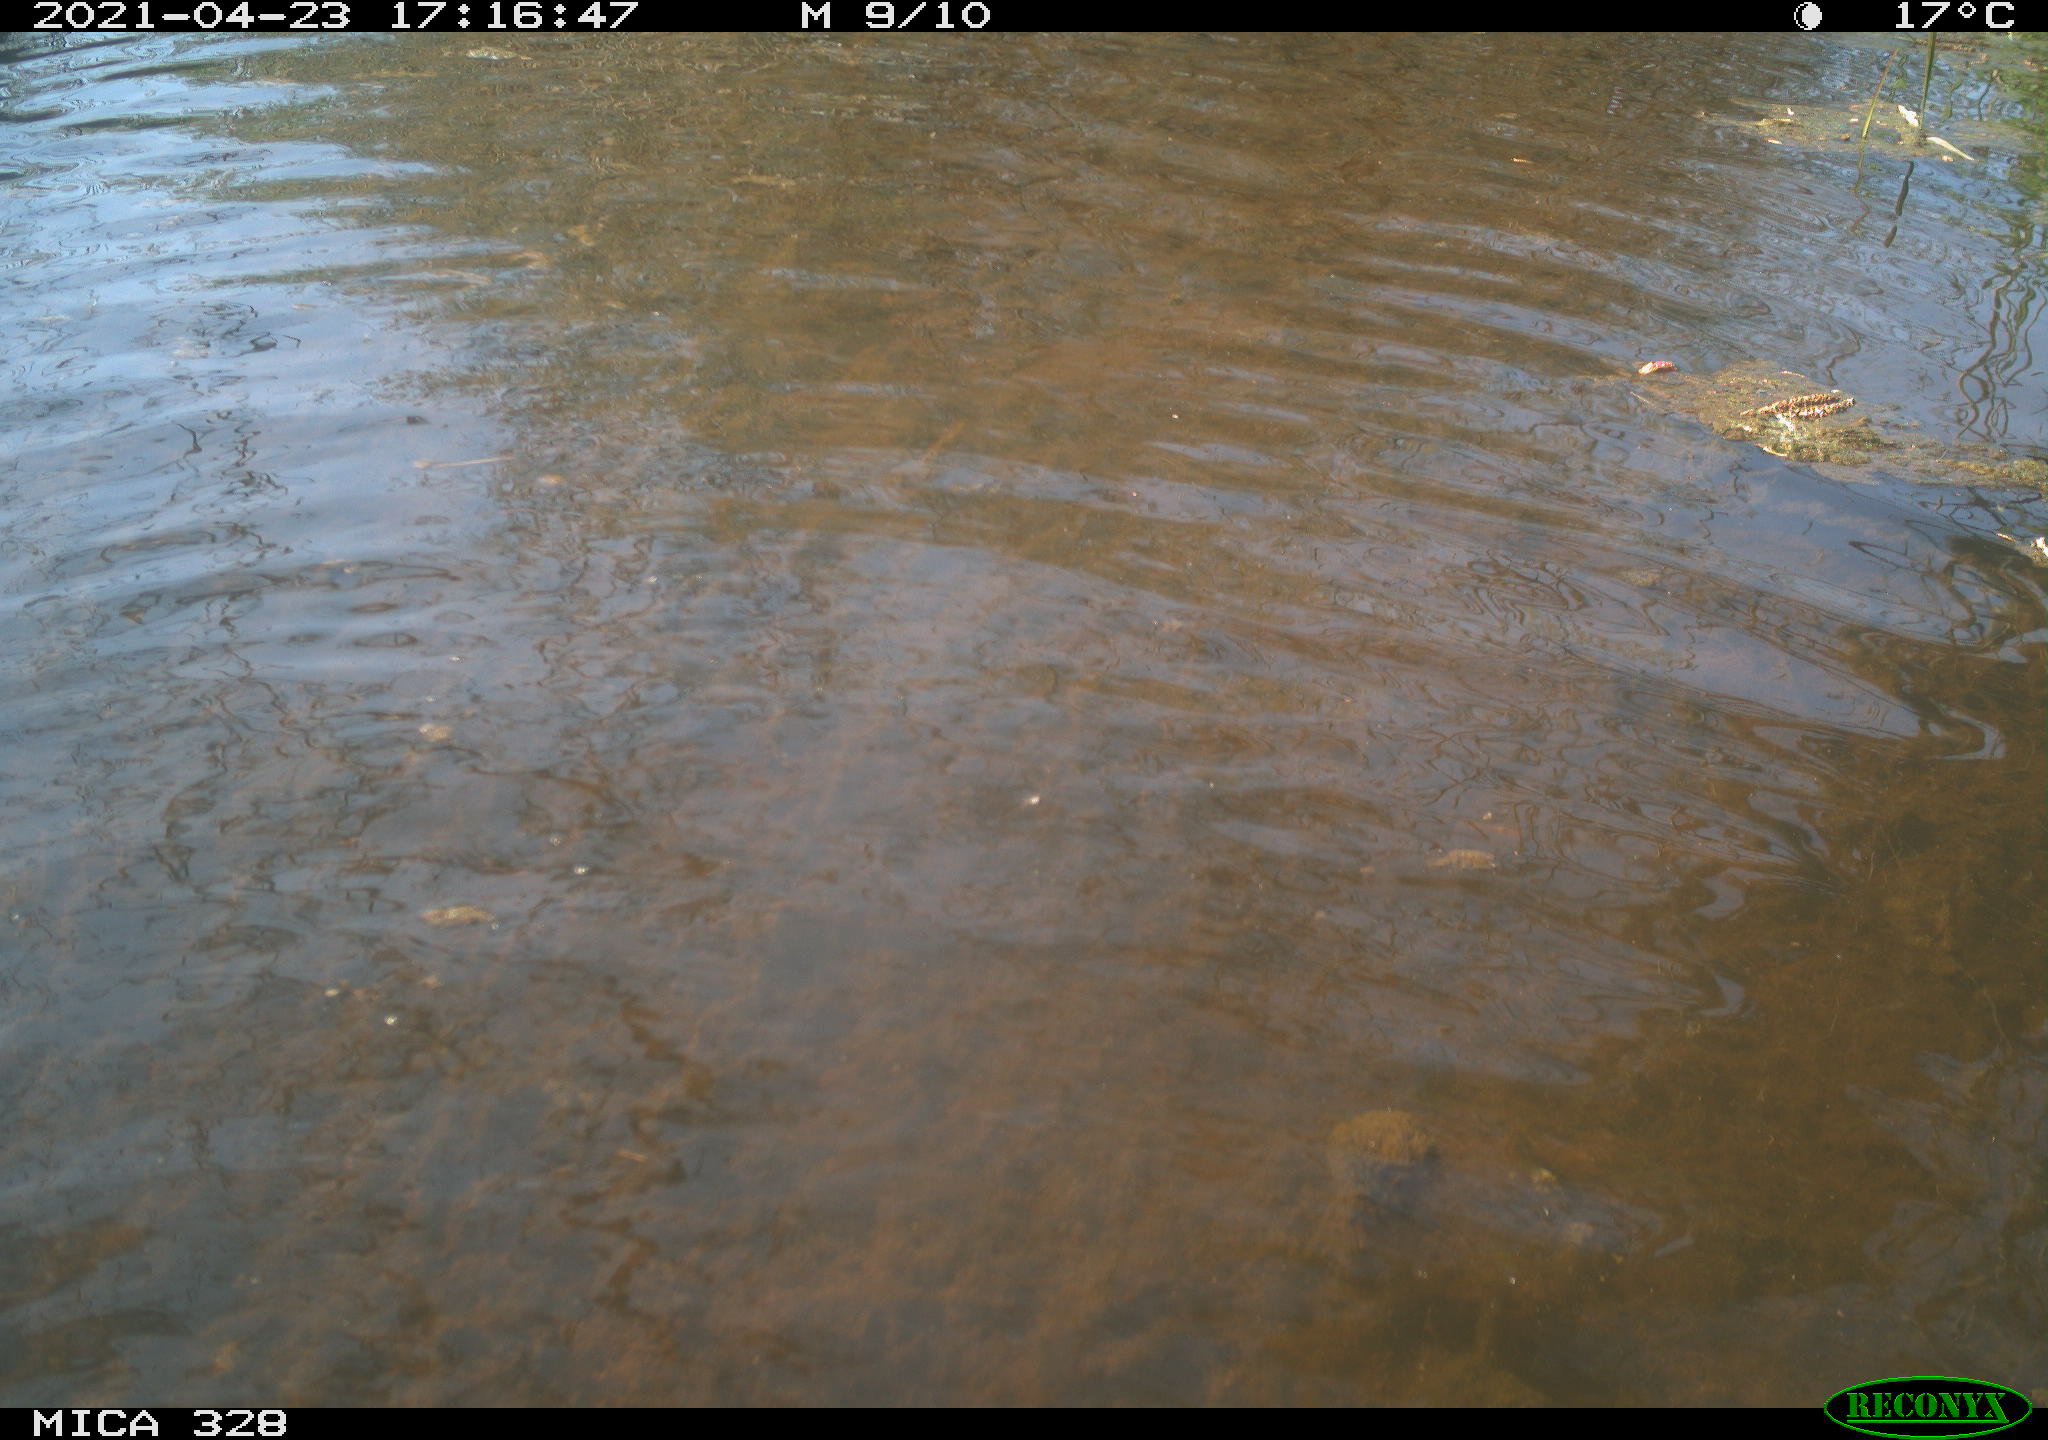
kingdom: Animalia
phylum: Chordata
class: Mammalia
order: Rodentia
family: Cricetidae
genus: Ondatra
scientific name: Ondatra zibethicus
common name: Muskrat
